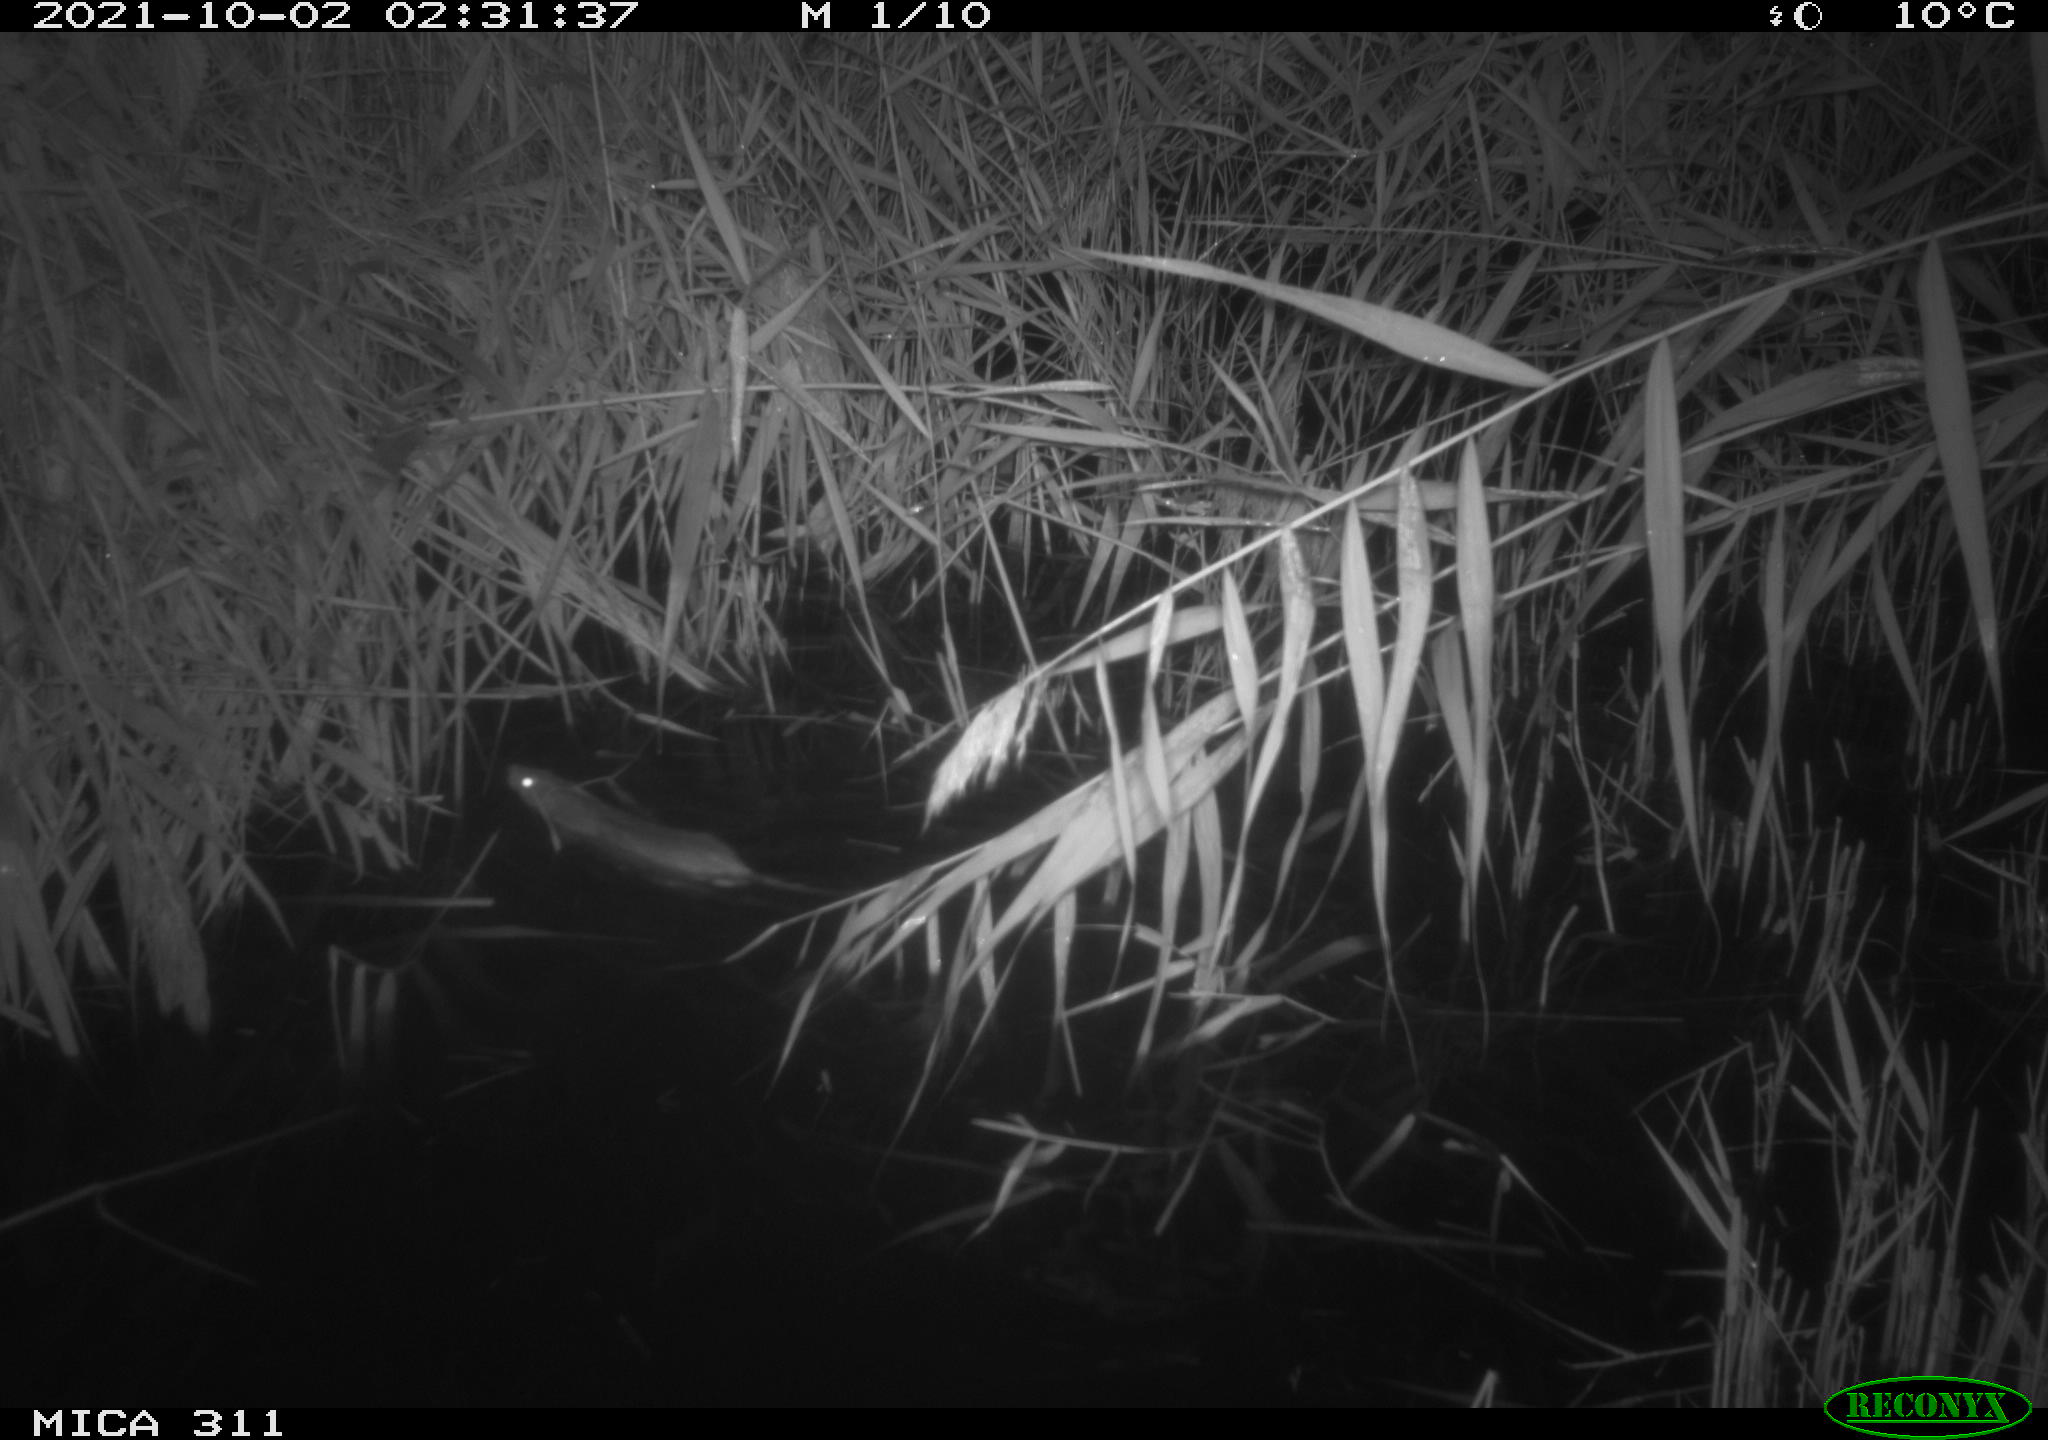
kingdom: Animalia
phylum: Chordata
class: Mammalia
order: Rodentia
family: Muridae
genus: Rattus
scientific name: Rattus norvegicus
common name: Brown rat
